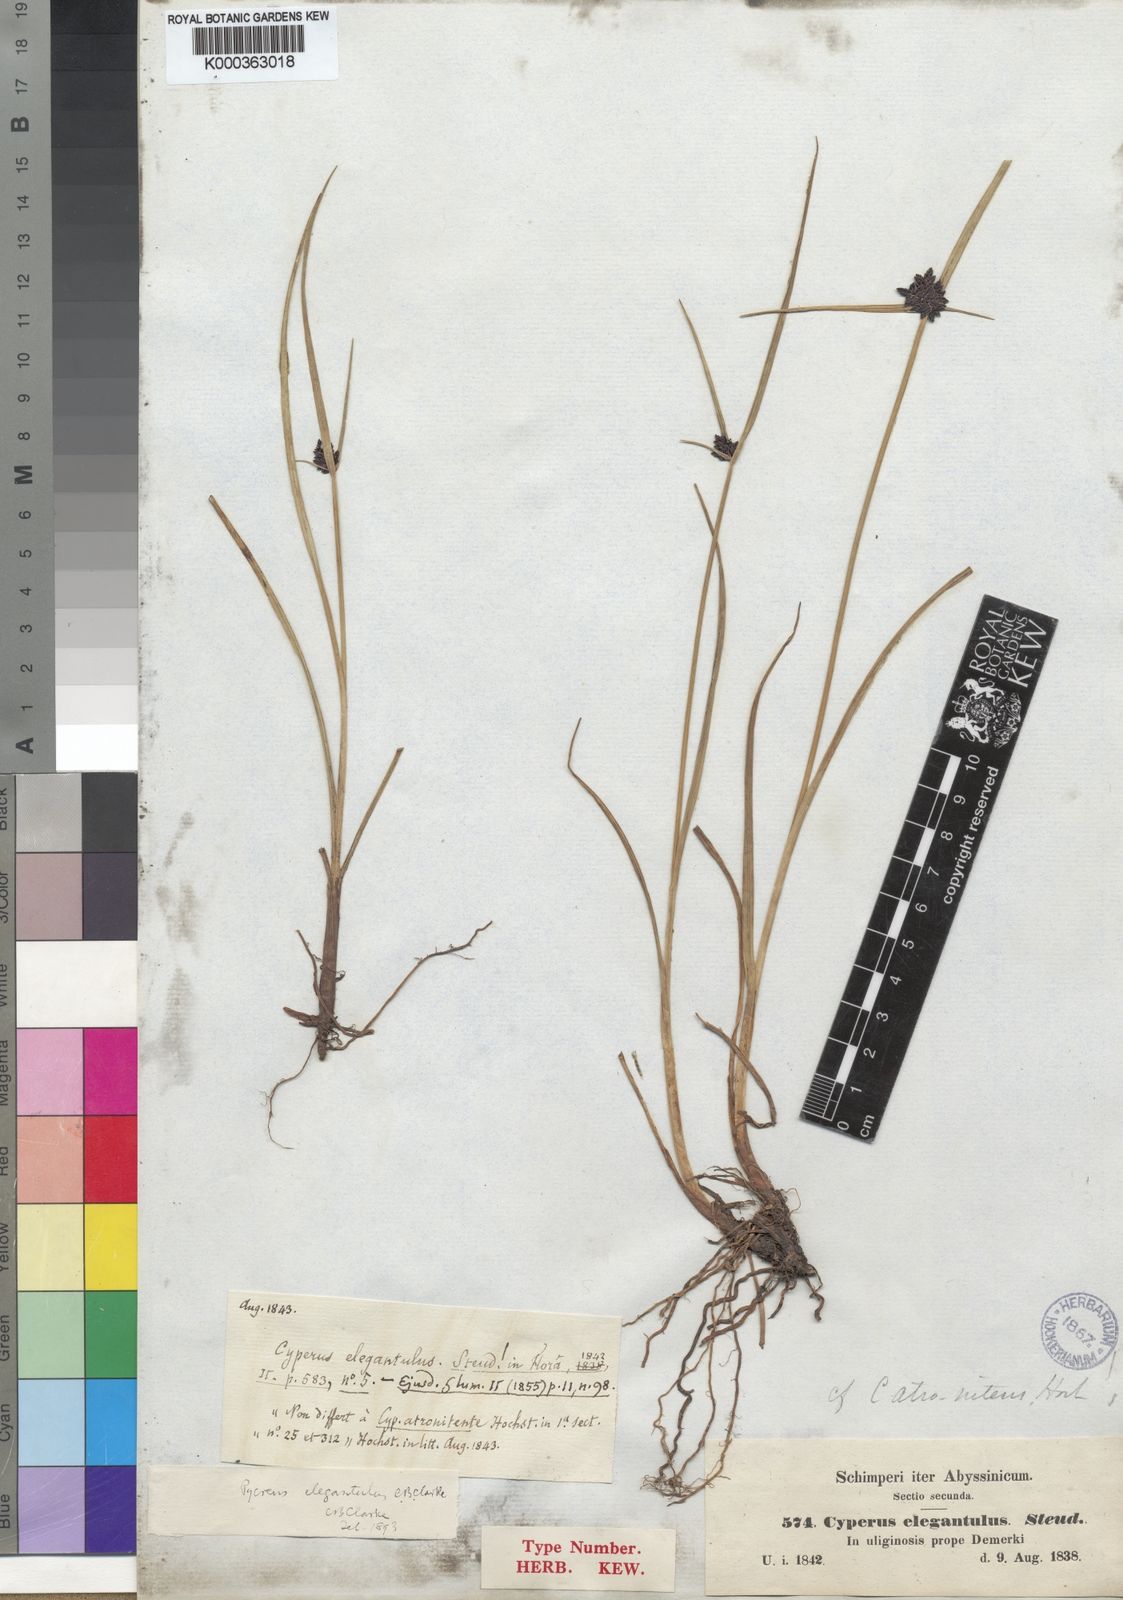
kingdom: Plantae
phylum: Tracheophyta
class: Liliopsida
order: Poales
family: Cyperaceae
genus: Cyperus
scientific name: Cyperus elegantulus
